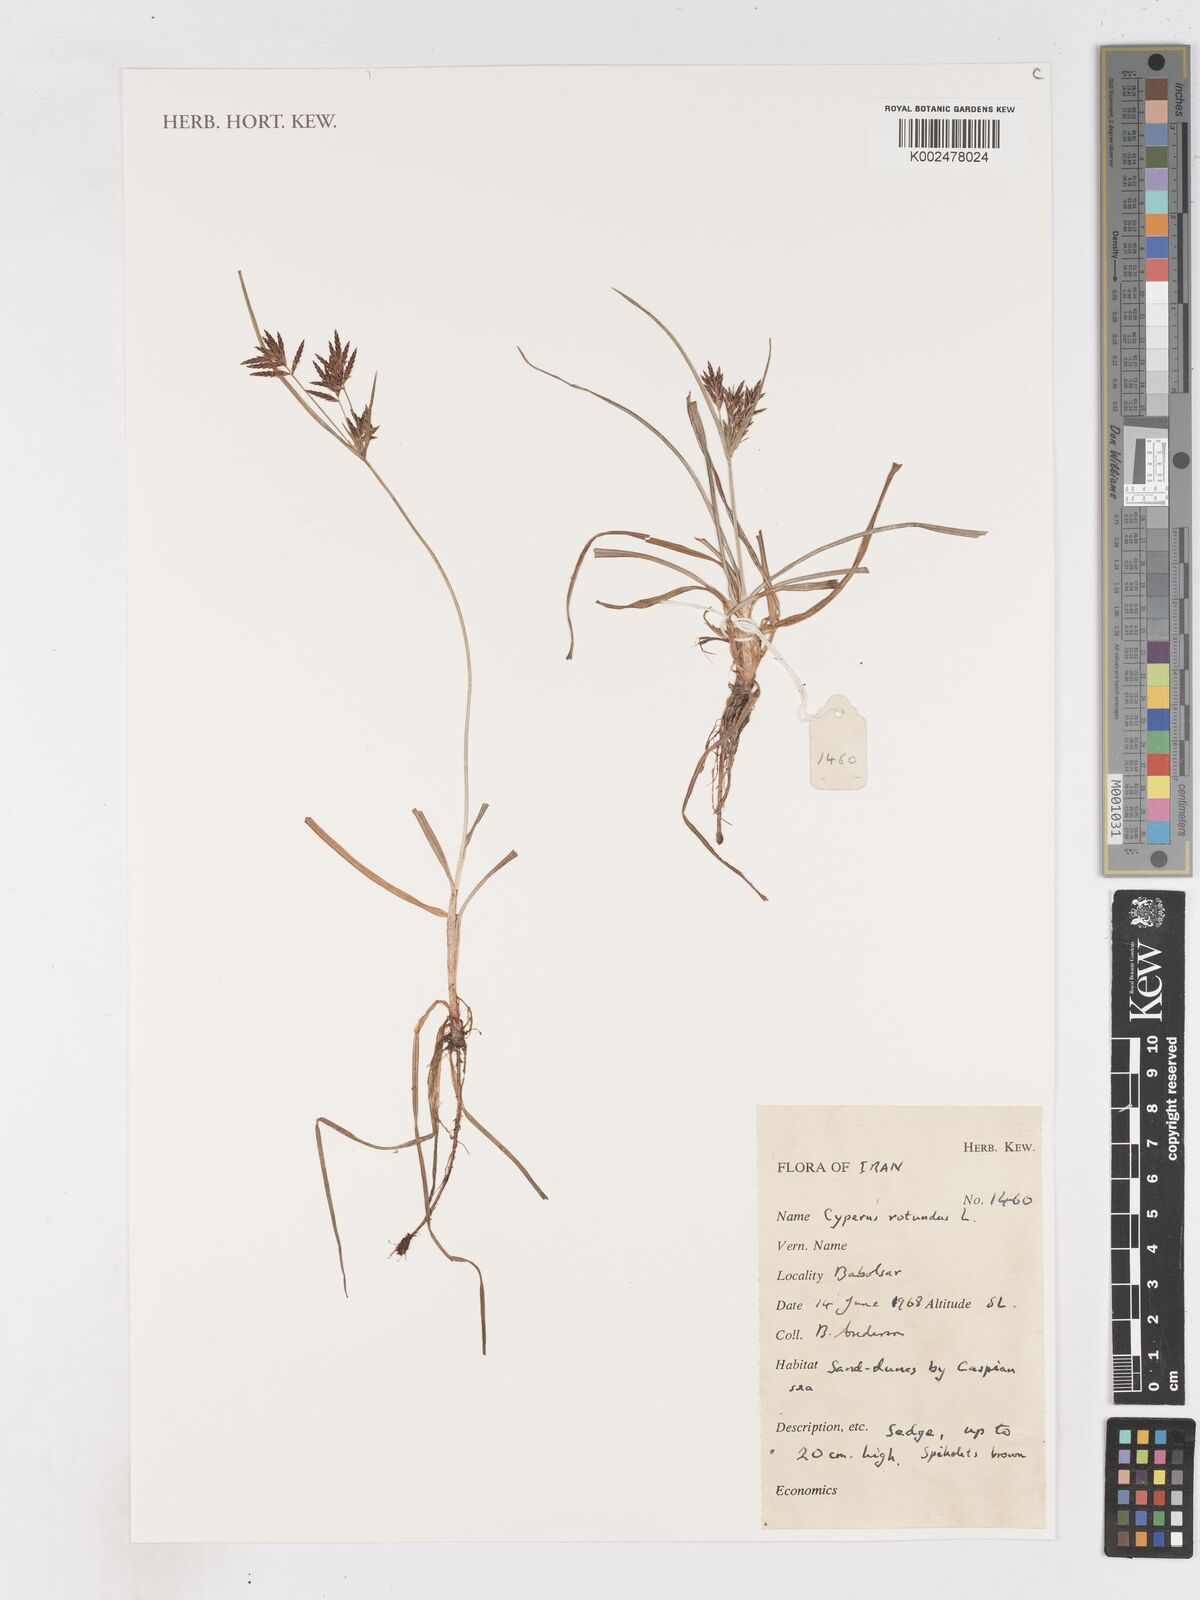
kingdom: Plantae
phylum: Tracheophyta
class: Liliopsida
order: Poales
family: Cyperaceae
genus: Cyperus
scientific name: Cyperus rotundus
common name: Nutgrass
